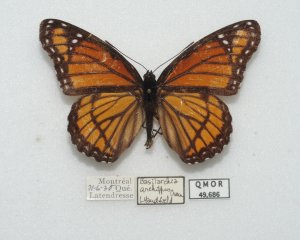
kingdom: Animalia
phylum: Arthropoda
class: Insecta
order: Lepidoptera
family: Nymphalidae
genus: Limenitis
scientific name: Limenitis archippus
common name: Viceroy
